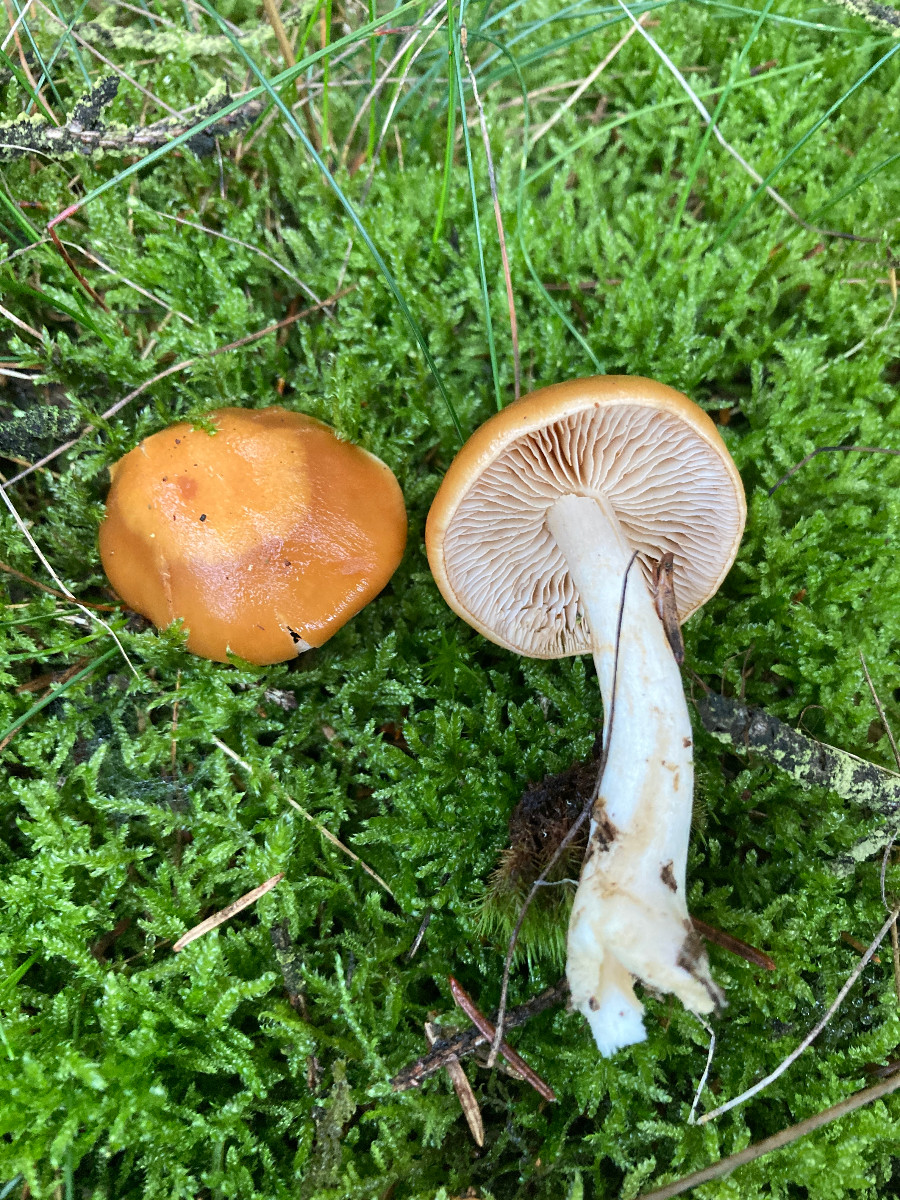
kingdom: Fungi
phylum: Basidiomycota
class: Agaricomycetes
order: Agaricales
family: Cortinariaceae
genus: Thaxterogaster
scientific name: Thaxterogaster
